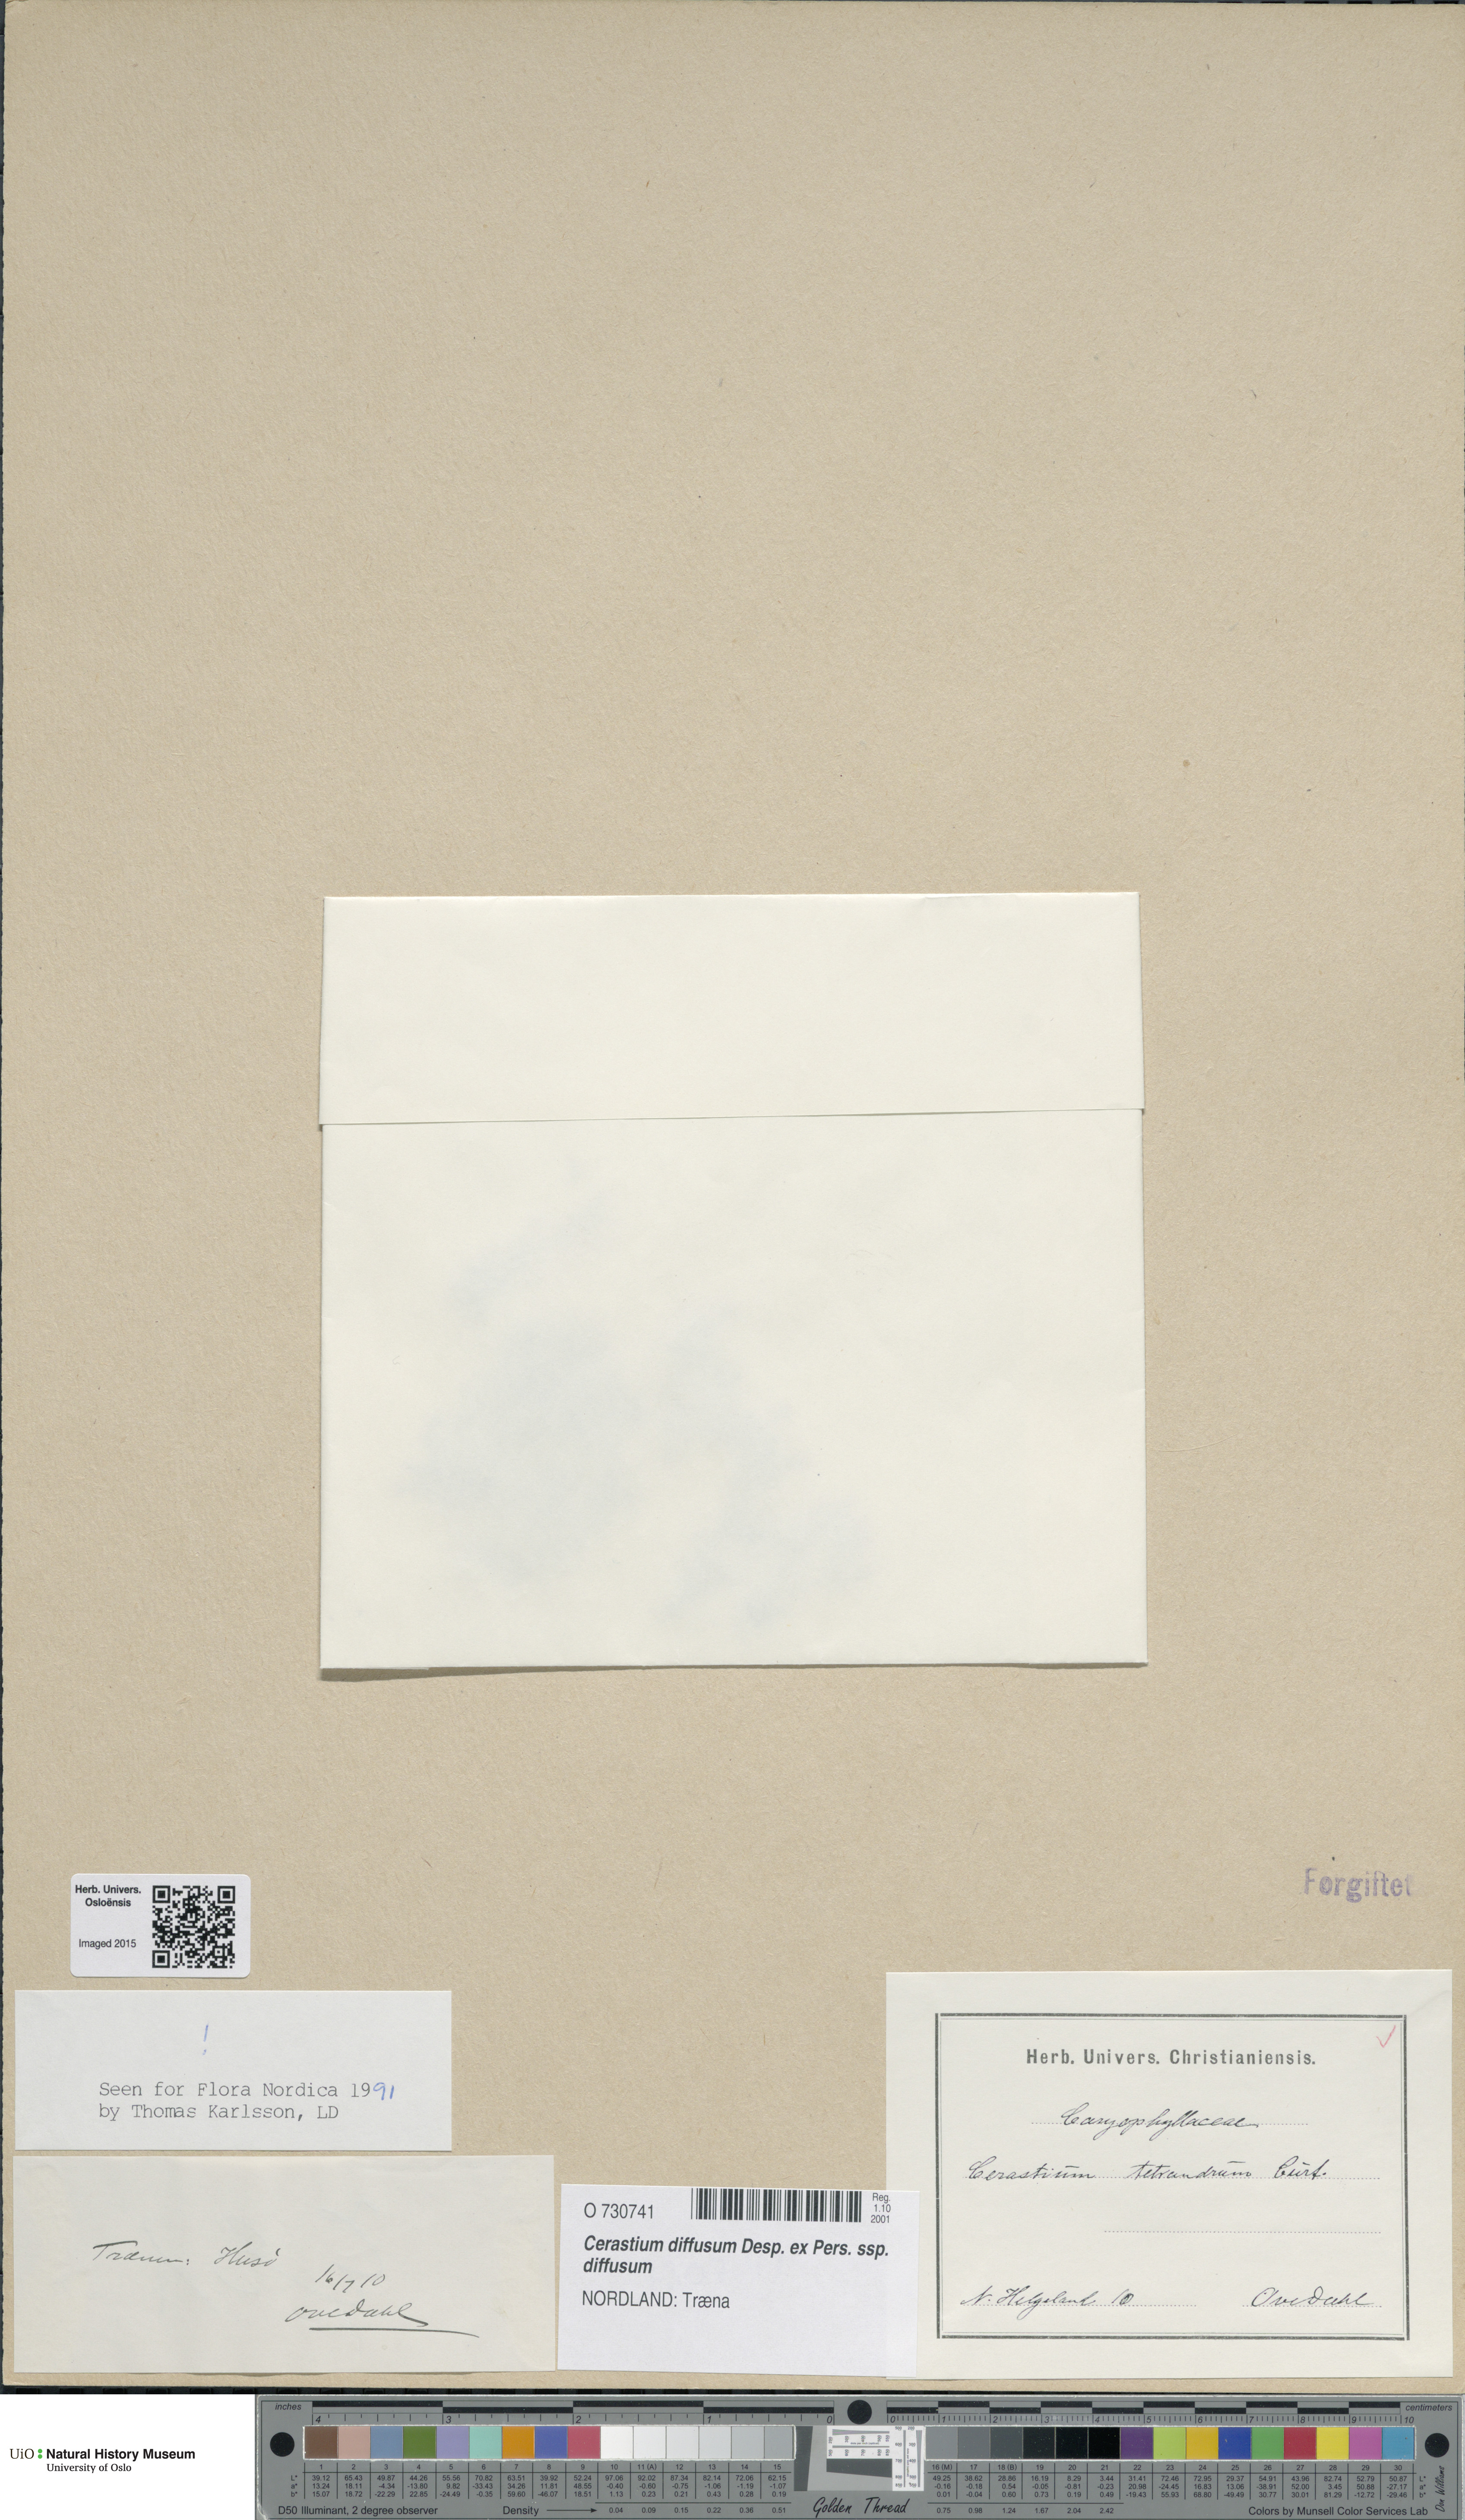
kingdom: Plantae
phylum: Tracheophyta
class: Magnoliopsida
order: Caryophyllales
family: Caryophyllaceae
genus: Cerastium
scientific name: Cerastium diffusum
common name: Fourstamen chickweed
